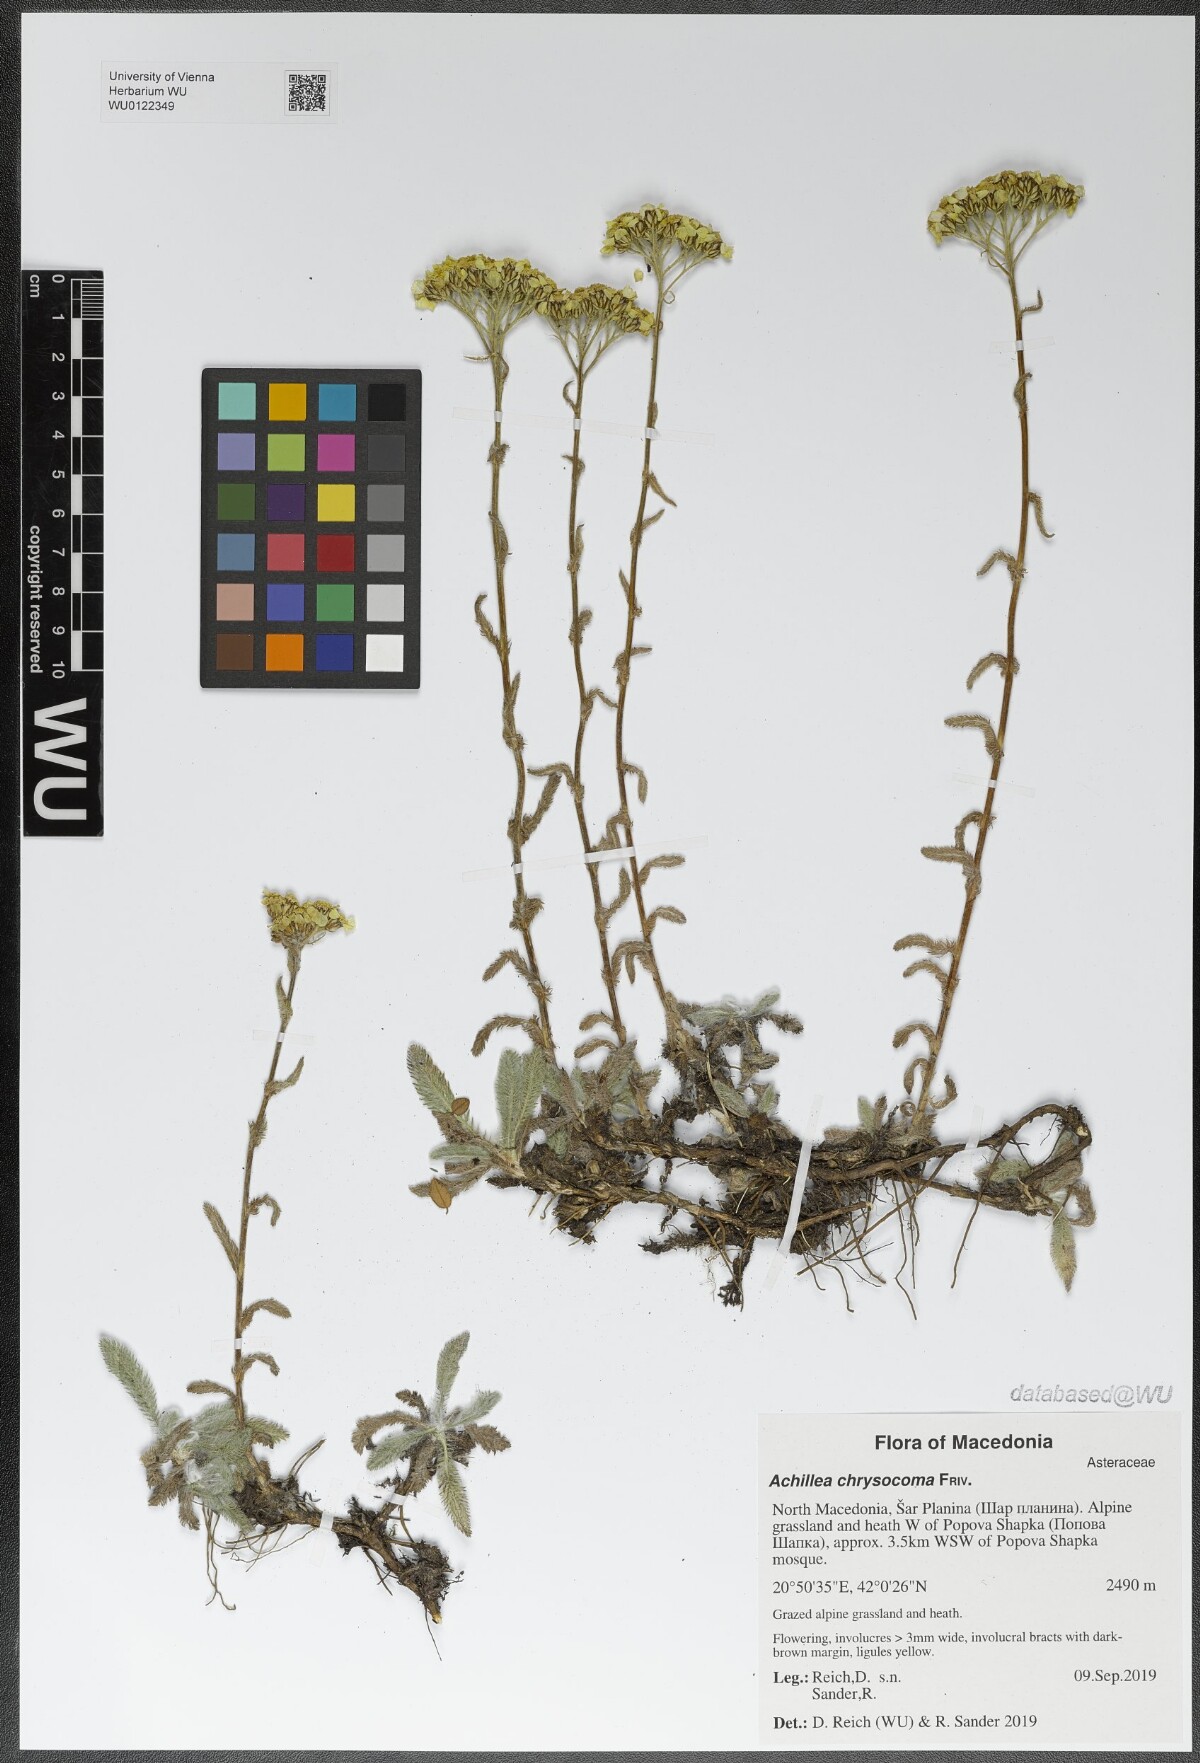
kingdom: Plantae
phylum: Tracheophyta
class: Magnoliopsida
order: Asterales
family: Asteraceae
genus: Achillea
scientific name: Achillea chrysocoma
